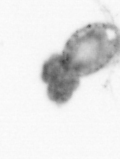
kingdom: Animalia
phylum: Arthropoda
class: Copepoda
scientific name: Copepoda
